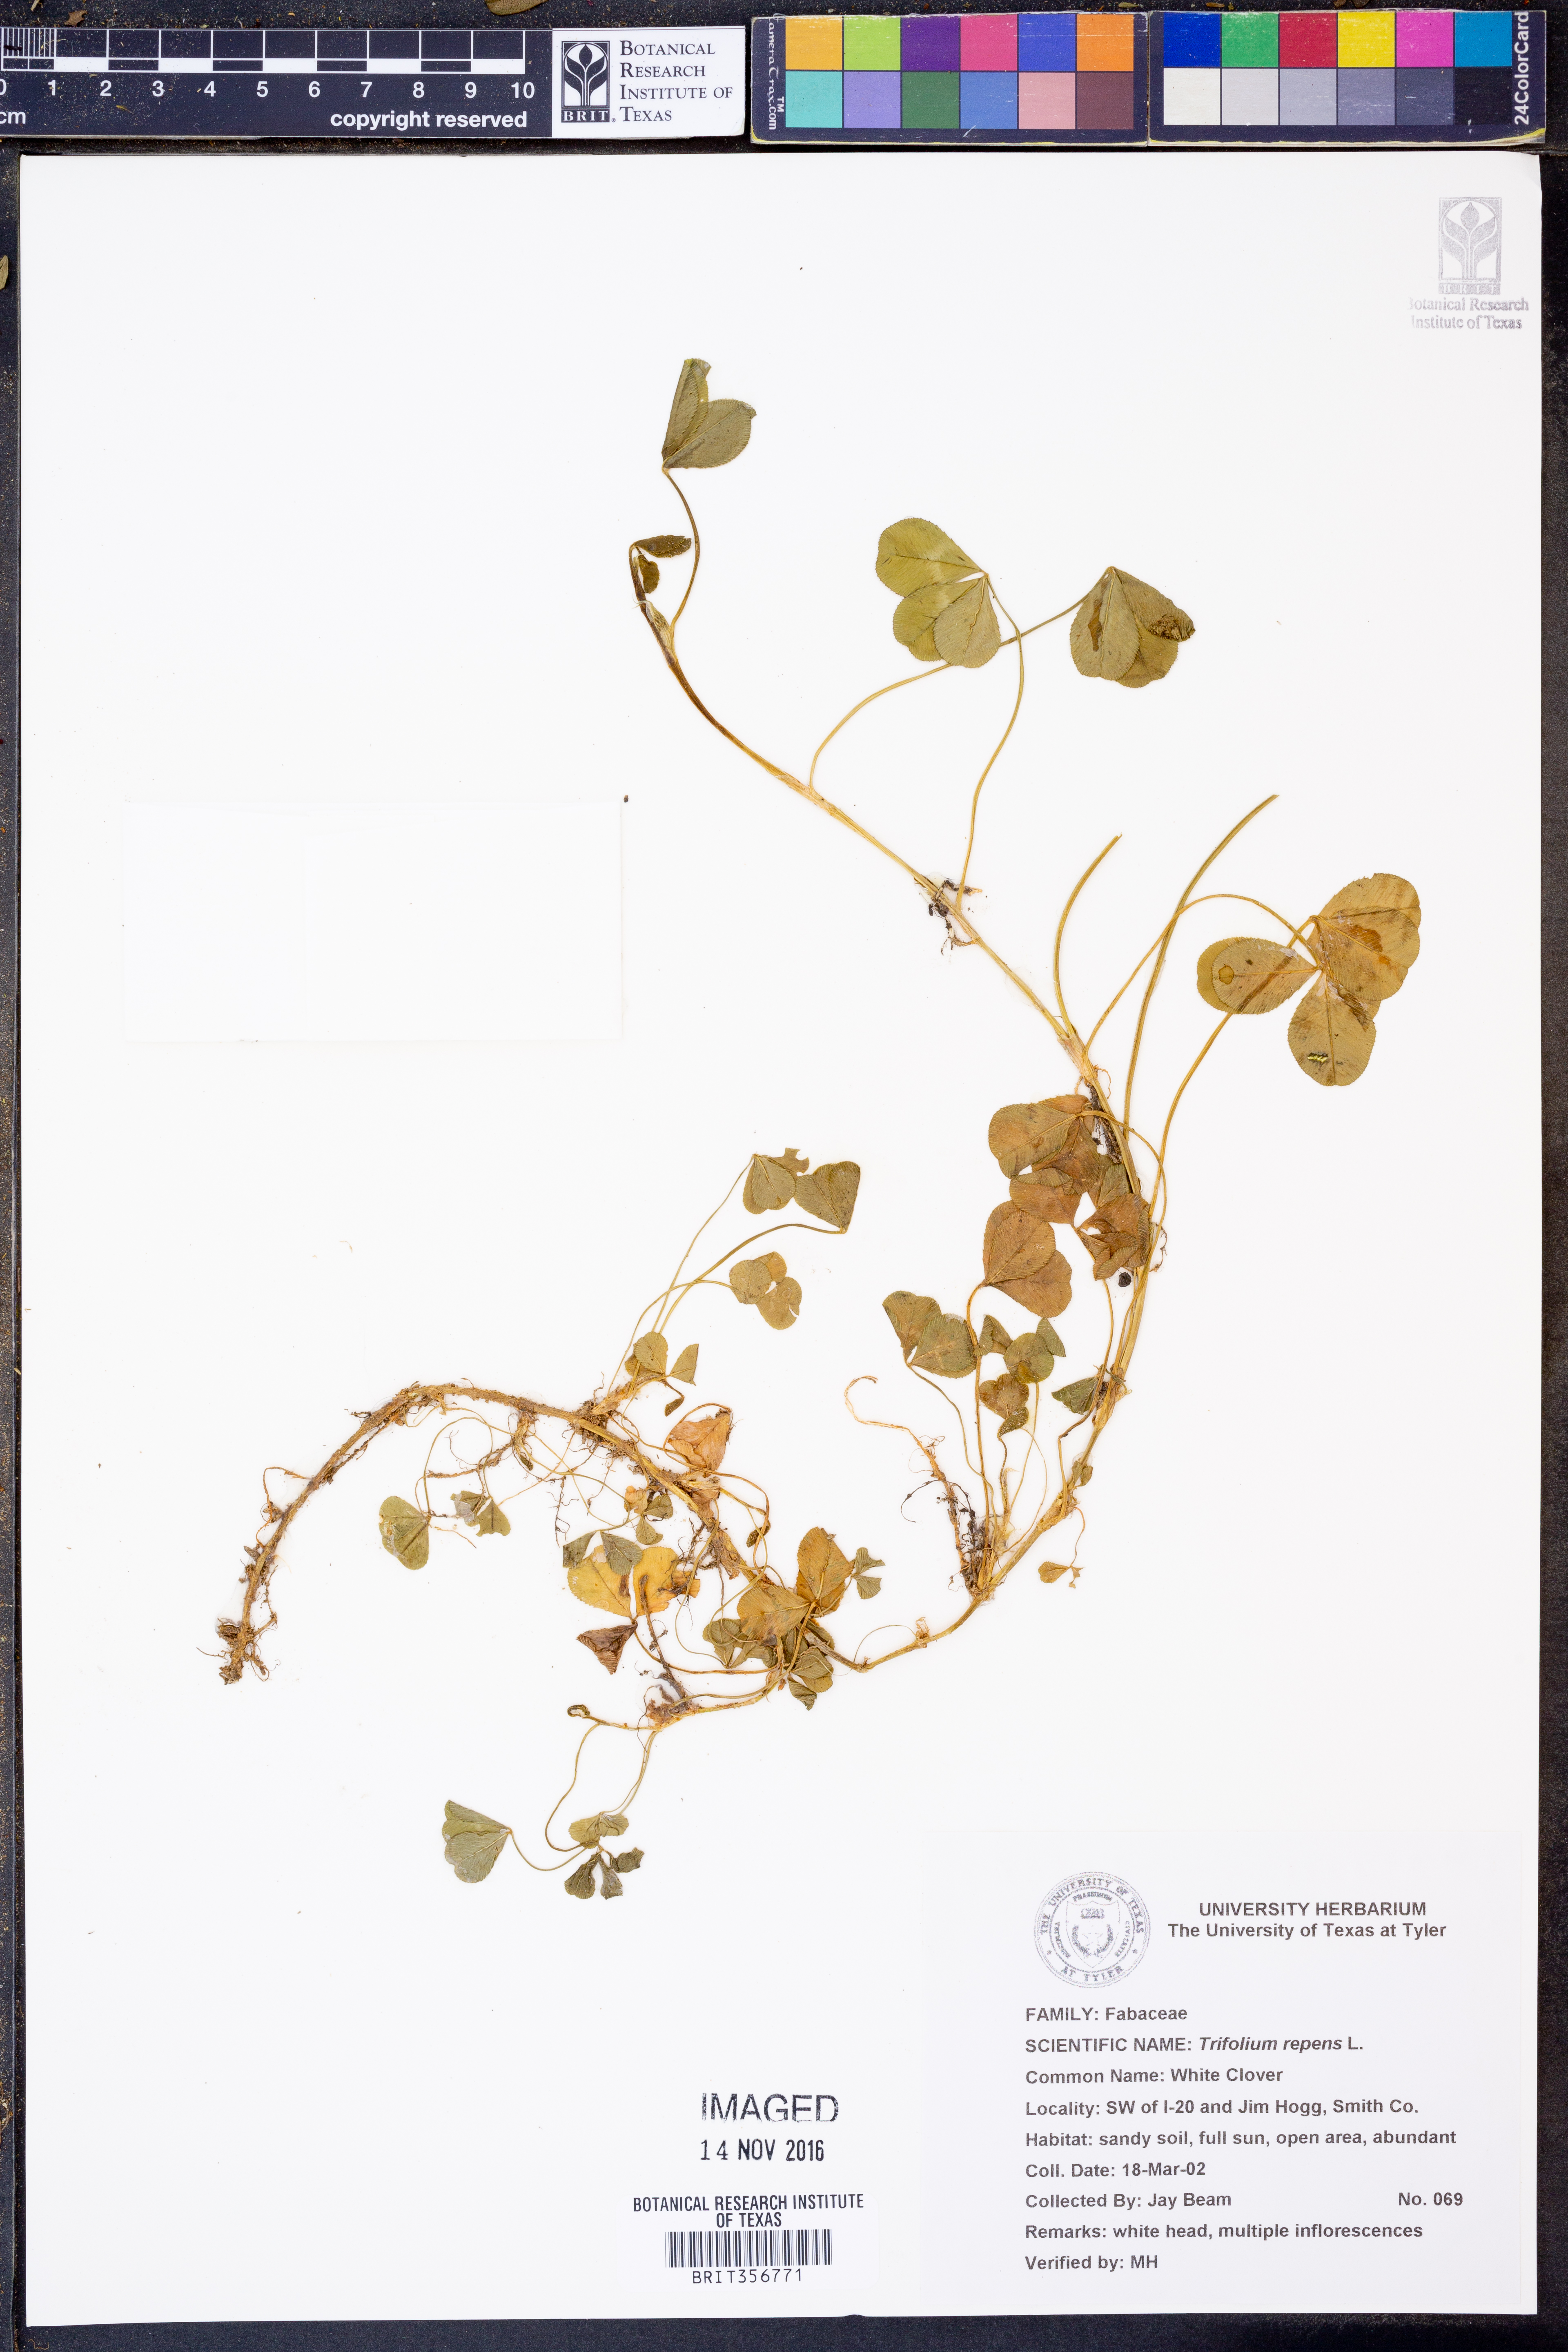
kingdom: Plantae
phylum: Tracheophyta
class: Magnoliopsida
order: Fabales
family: Fabaceae
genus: Trifolium
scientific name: Trifolium repens
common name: White clover
